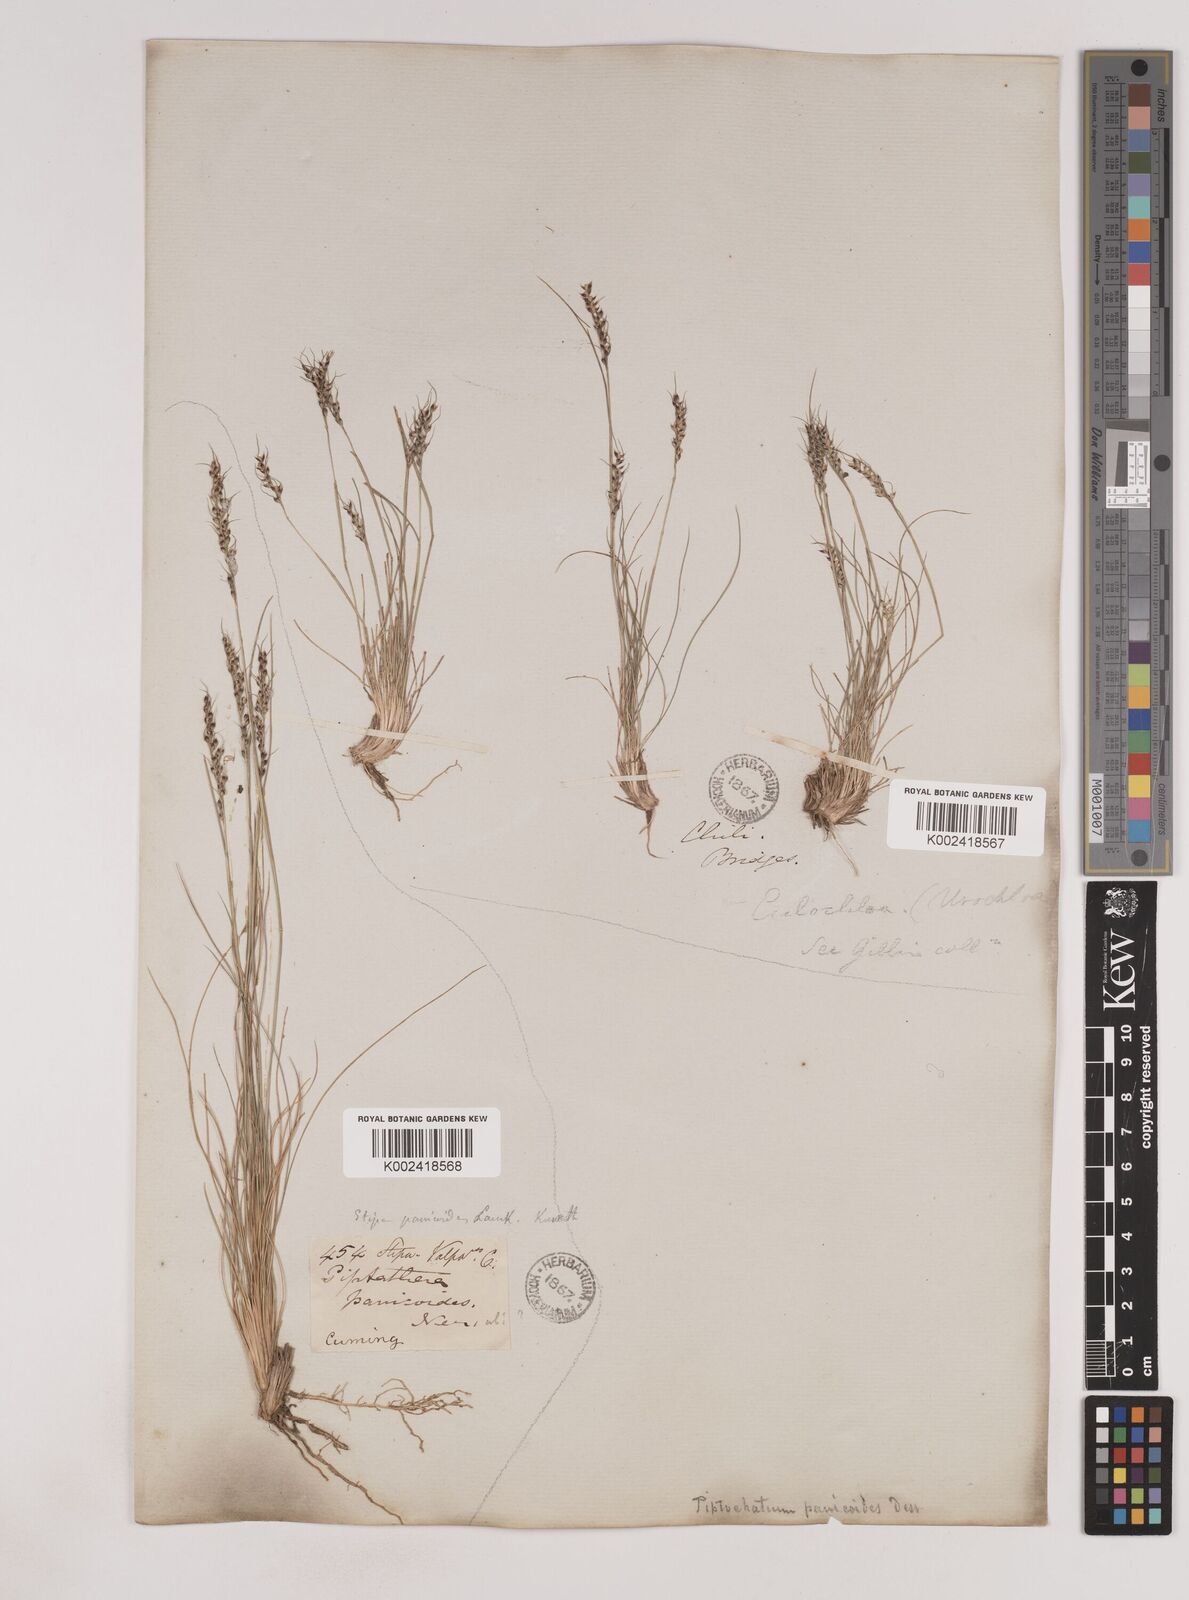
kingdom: Plantae
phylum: Tracheophyta
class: Liliopsida
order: Poales
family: Poaceae
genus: Piptochaetium
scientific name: Piptochaetium montevidense
